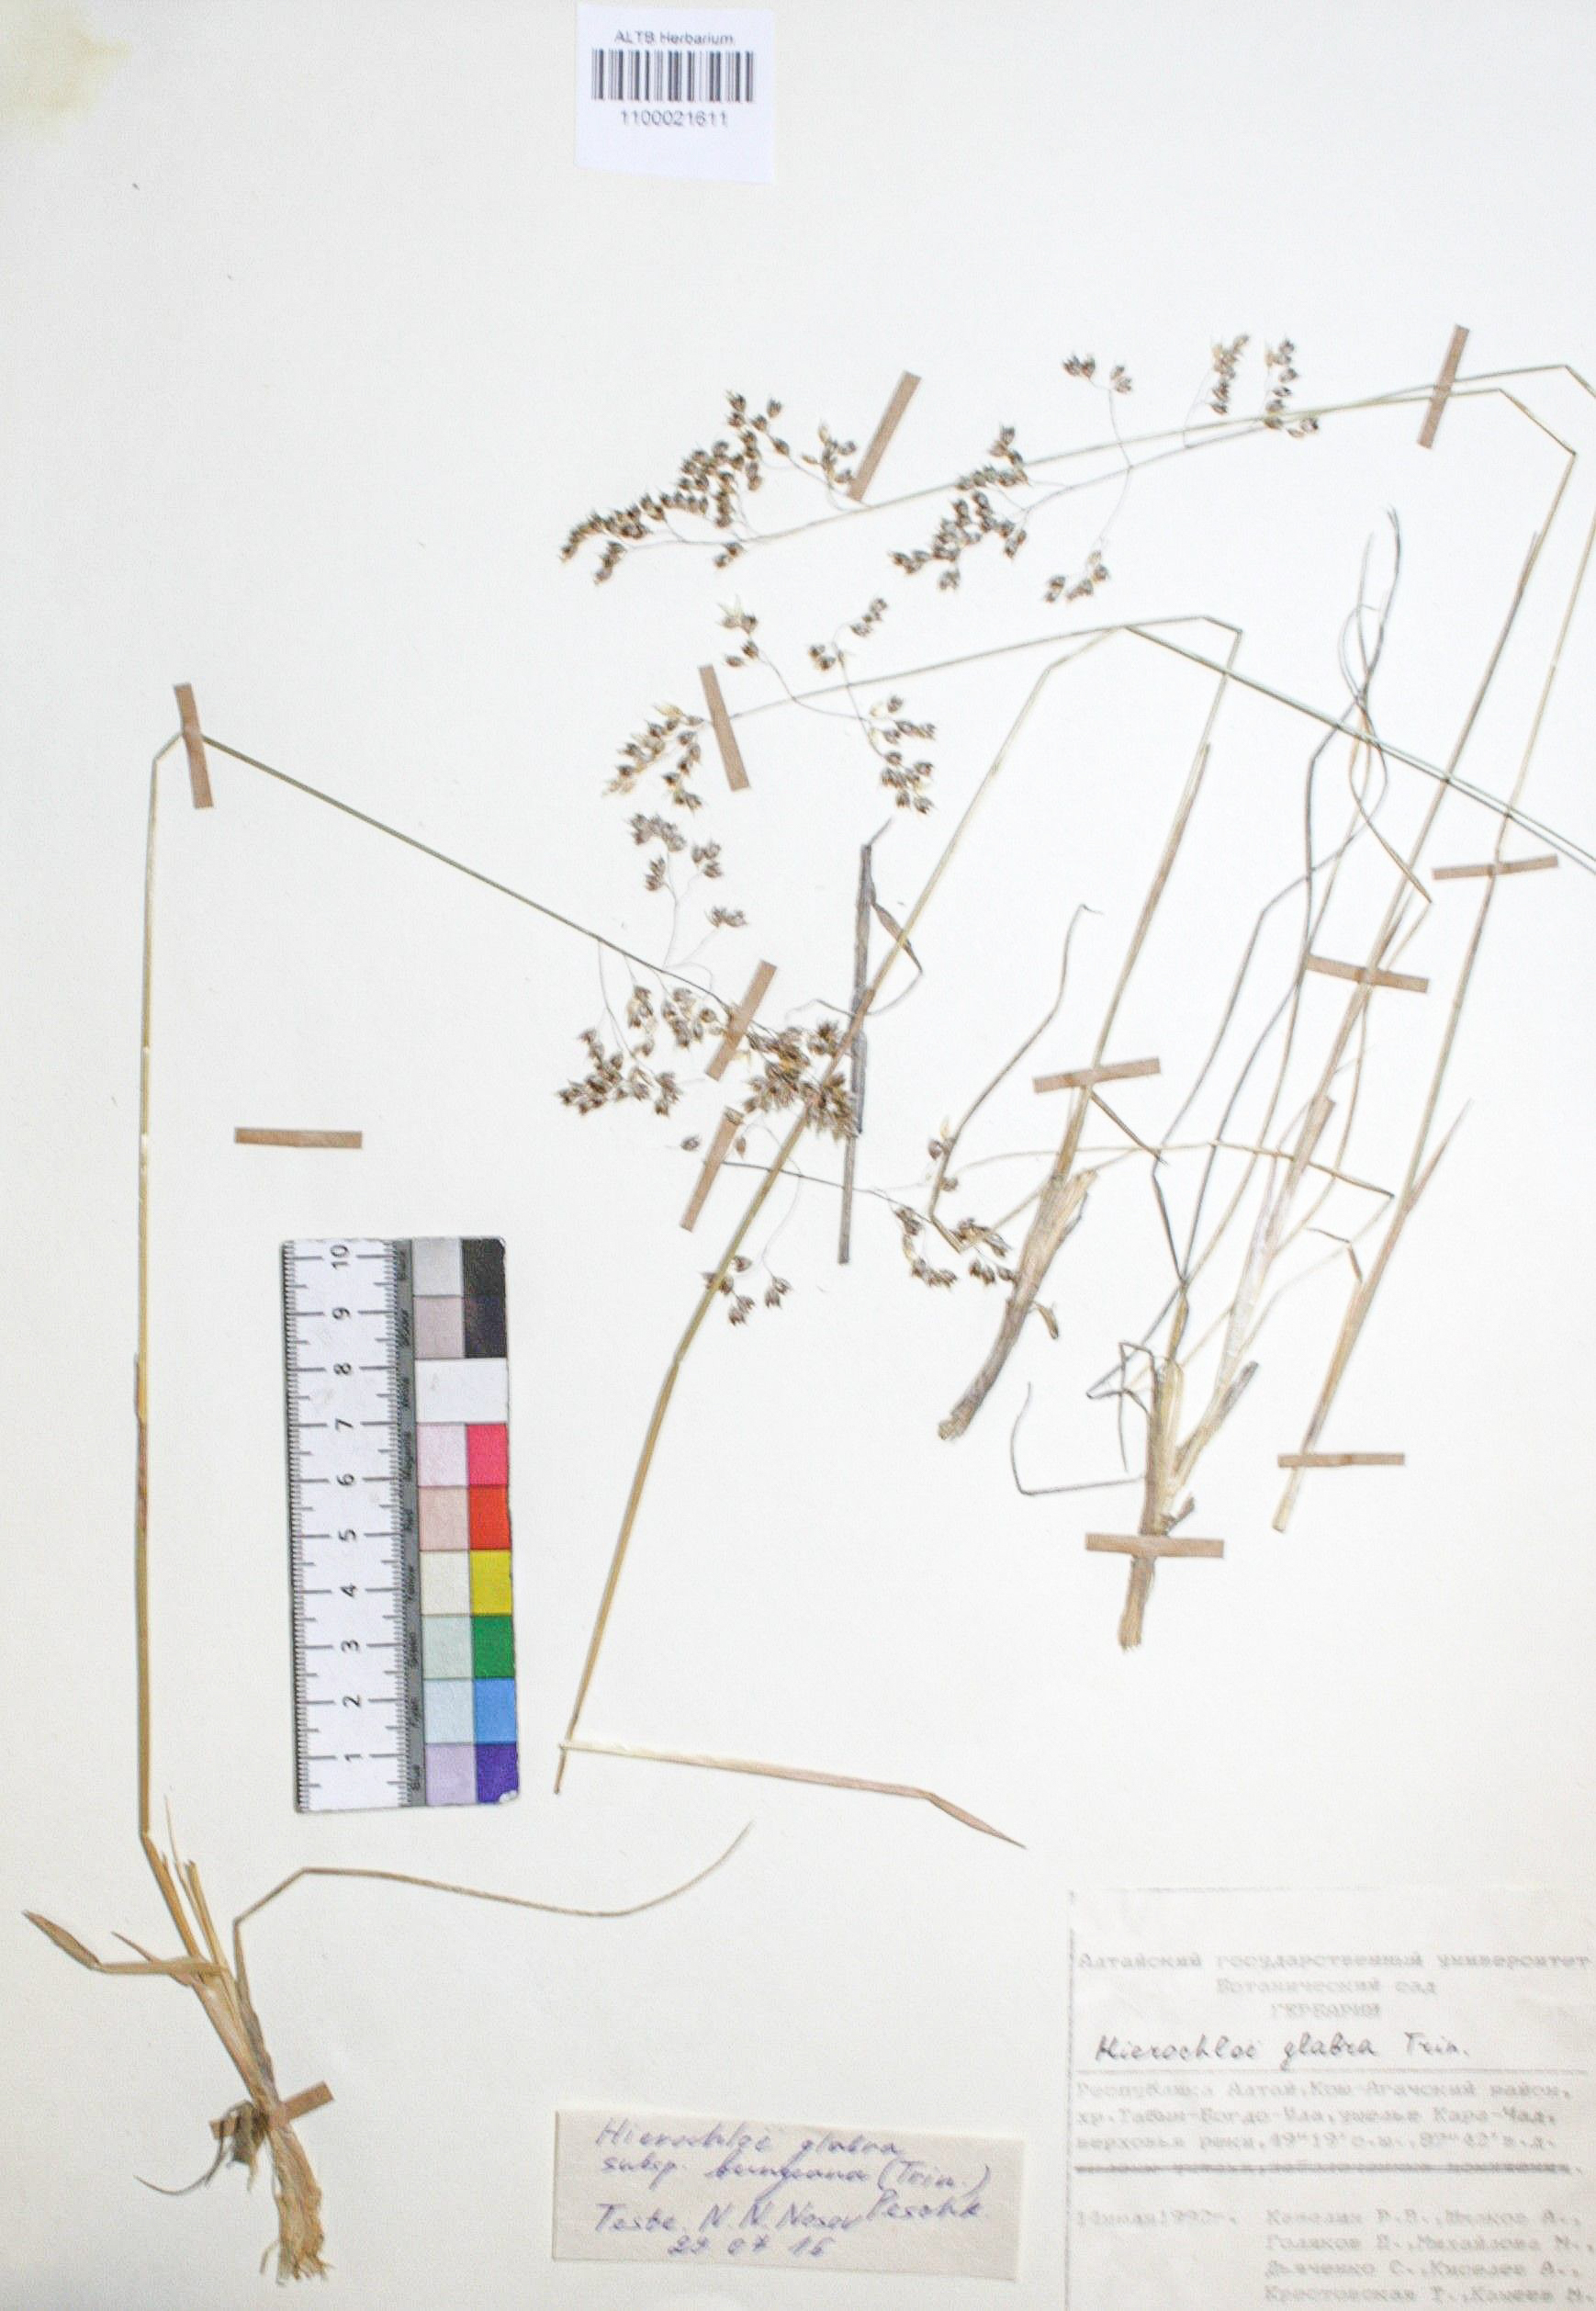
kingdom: Plantae
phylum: Tracheophyta
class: Liliopsida
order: Poales
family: Poaceae
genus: Anthoxanthum
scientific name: Anthoxanthum glabrum
